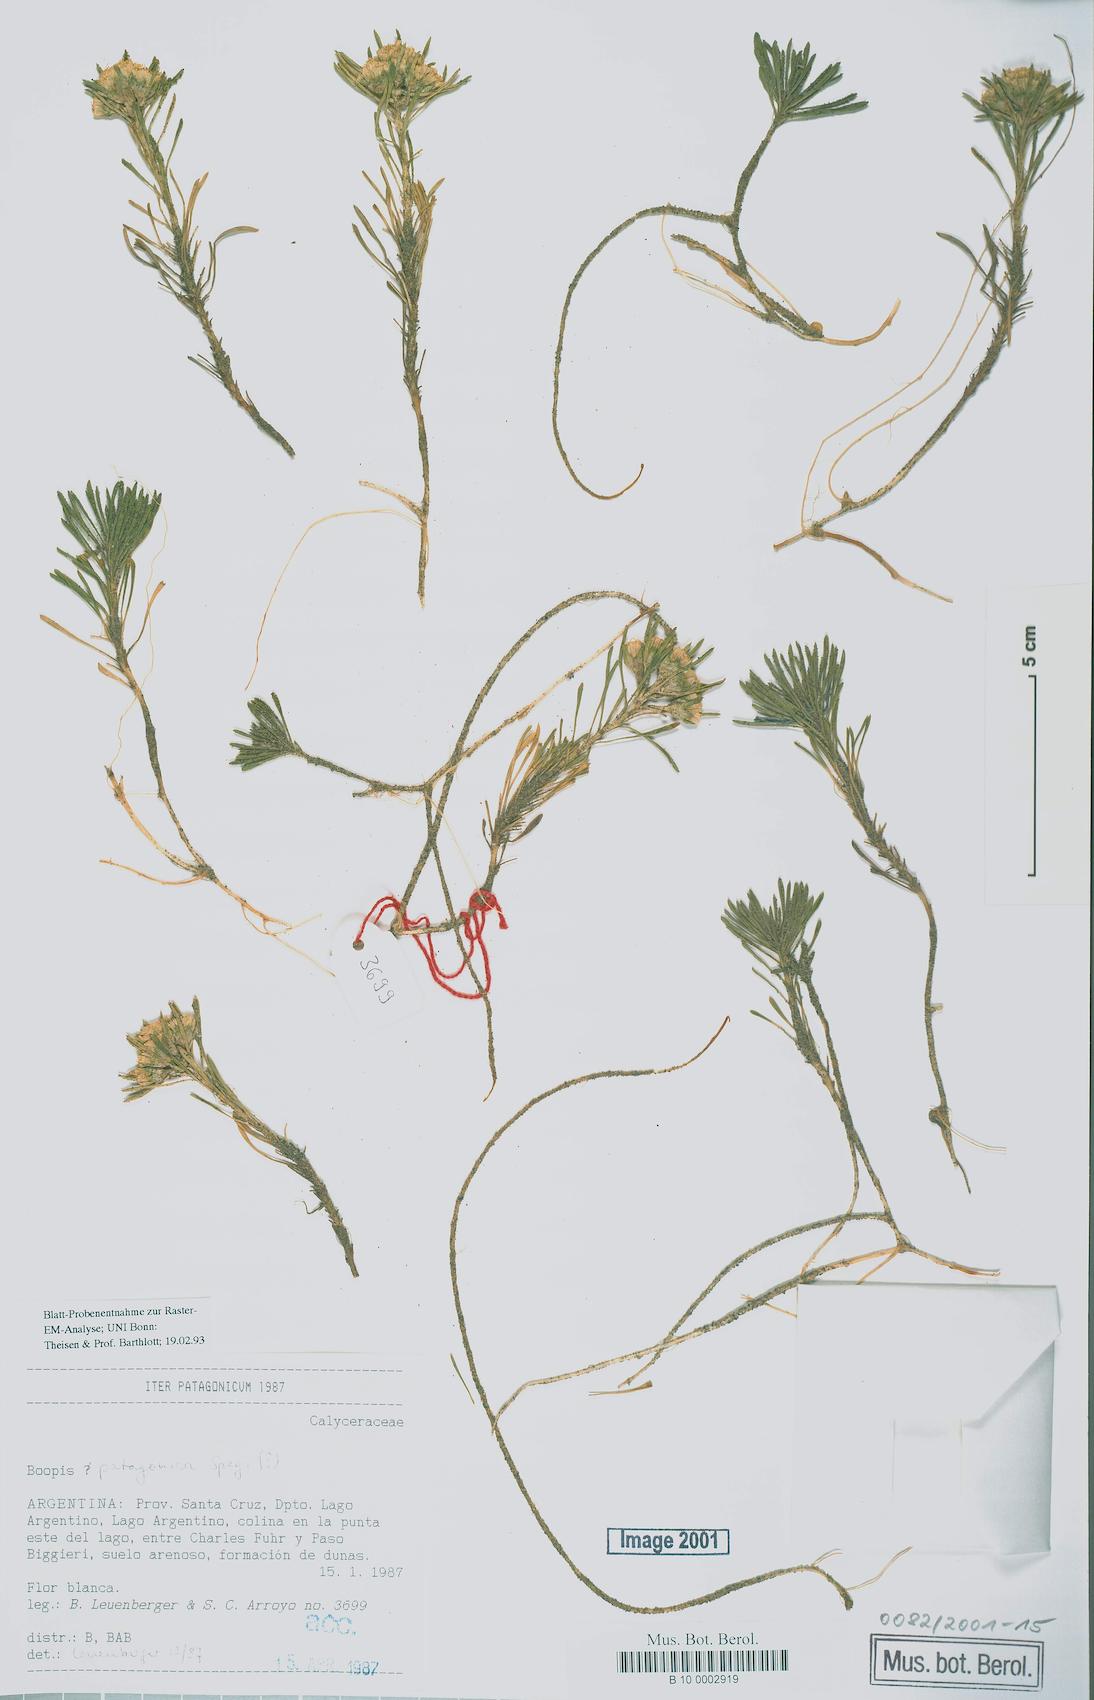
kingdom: Plantae
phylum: Tracheophyta
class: Magnoliopsida
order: Asterales
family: Calyceraceae
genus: Moschopsis
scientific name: Moschopsis patagonica
